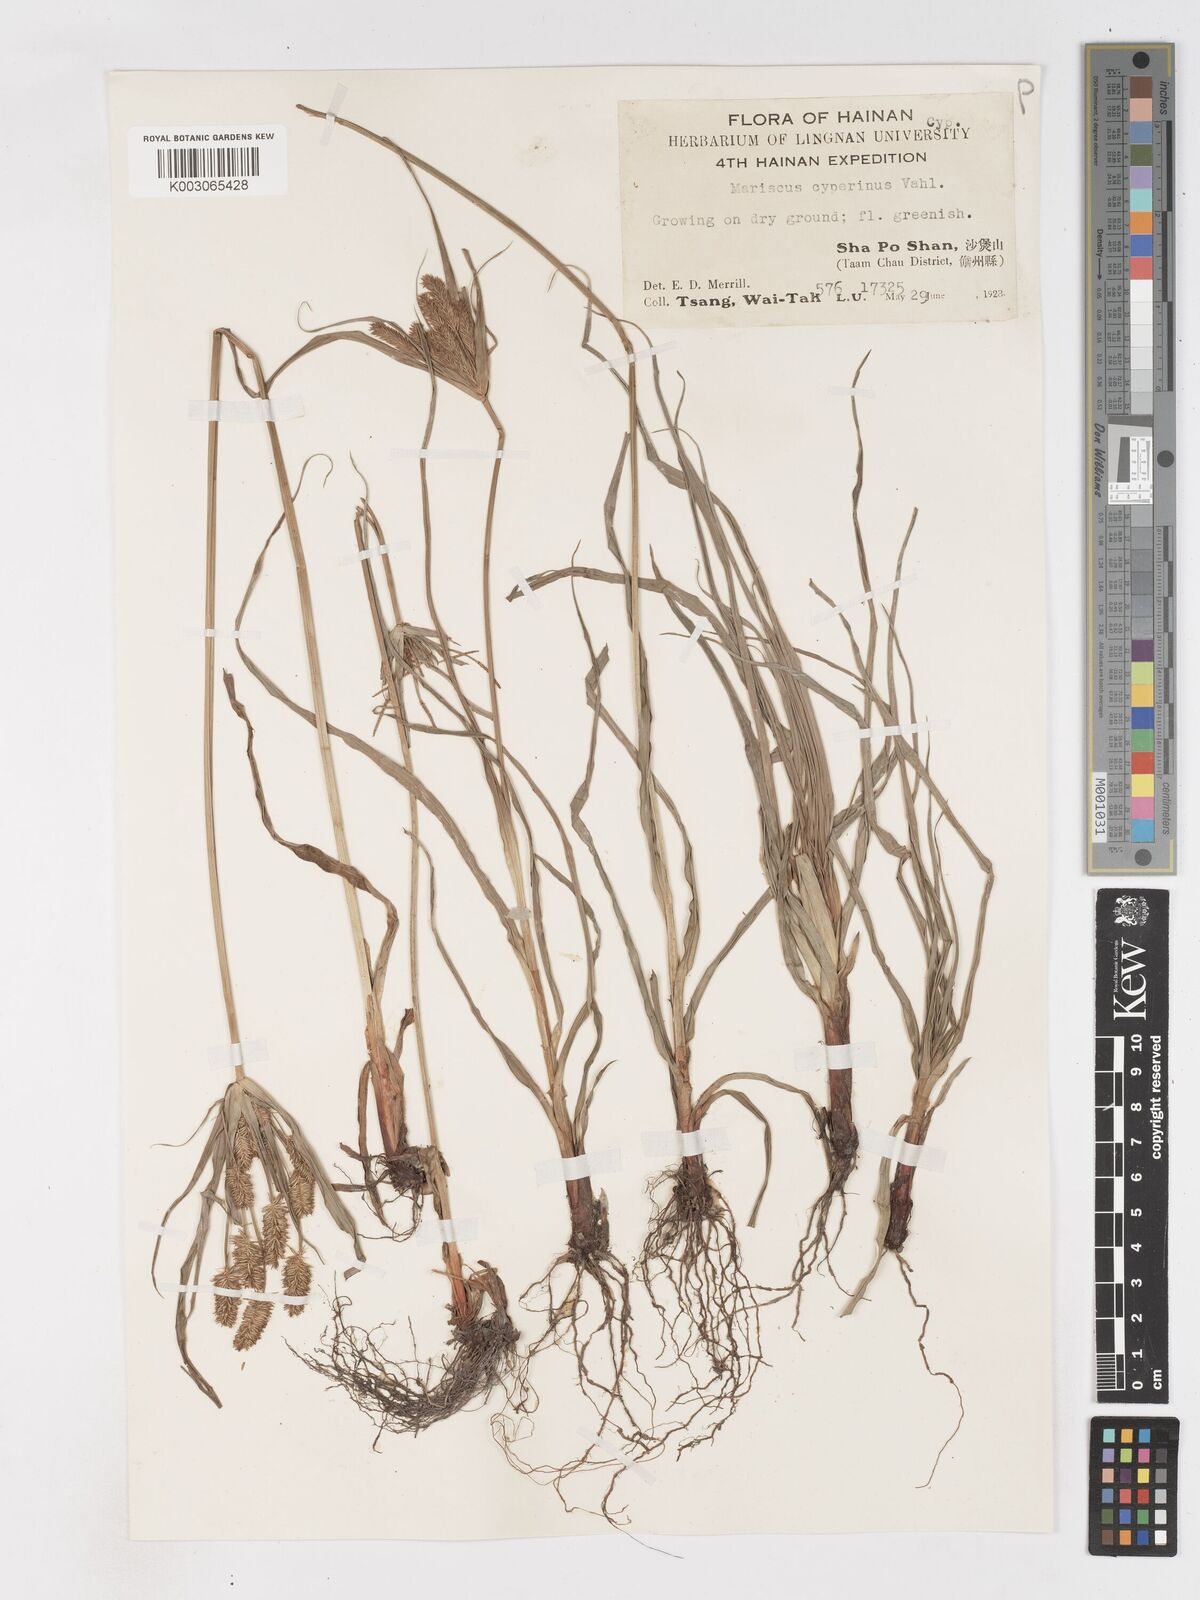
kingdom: Plantae
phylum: Tracheophyta
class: Liliopsida
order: Poales
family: Cyperaceae
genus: Cyperus
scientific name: Cyperus cyperinus
